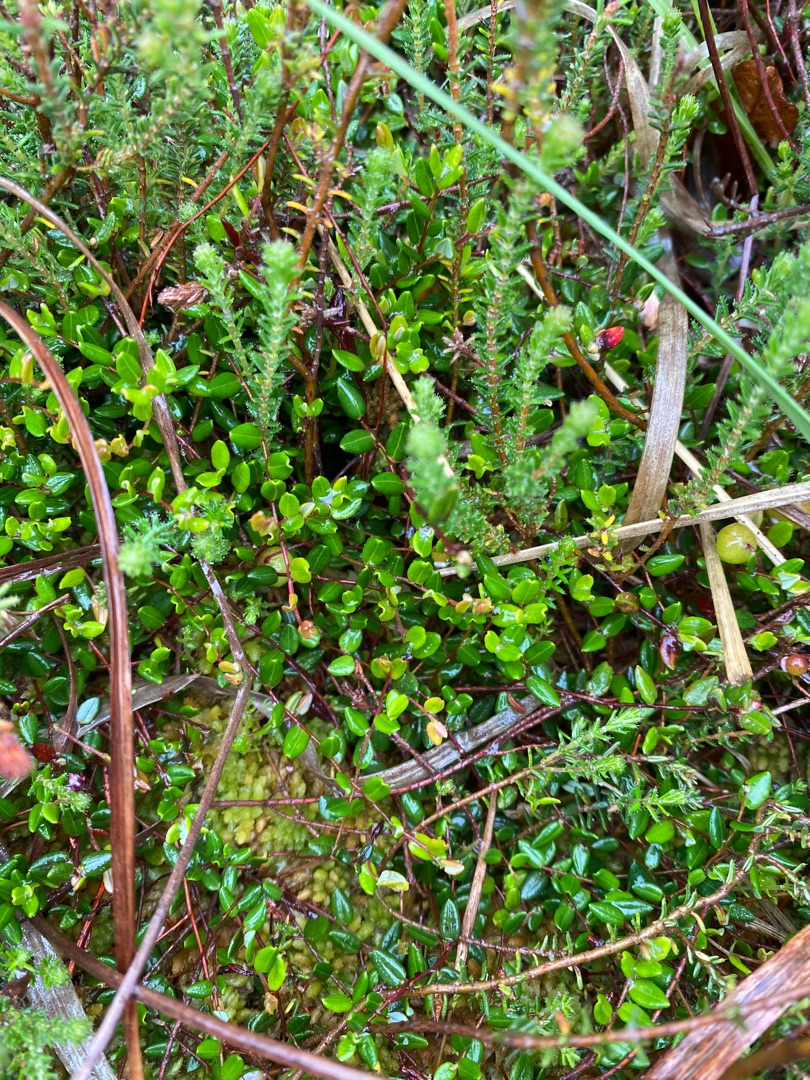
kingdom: Plantae
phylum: Tracheophyta
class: Magnoliopsida
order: Ericales
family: Ericaceae
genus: Vaccinium
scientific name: Vaccinium oxycoccos
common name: Tranebær
